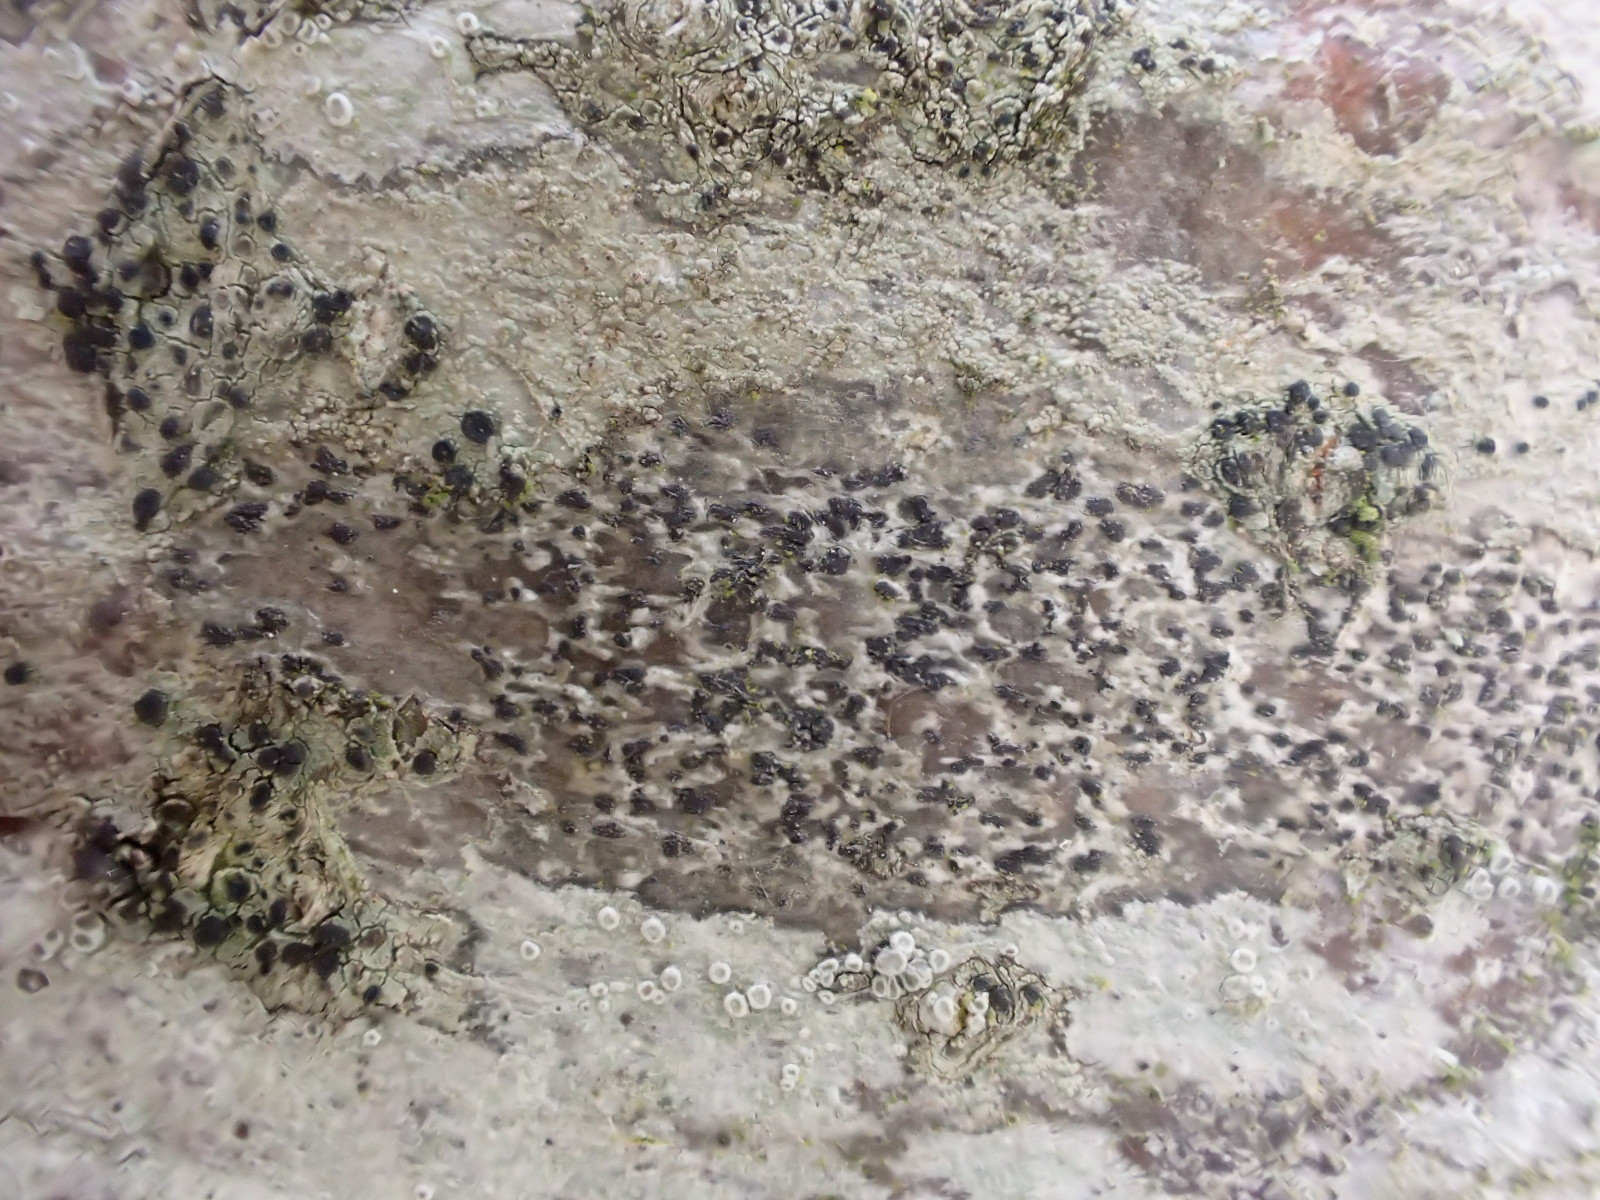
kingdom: Fungi
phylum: Ascomycota
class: Arthoniomycetes
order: Arthoniales
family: Arthoniaceae
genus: Arthonia
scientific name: Arthonia radiata
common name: stjerne-pletlav
